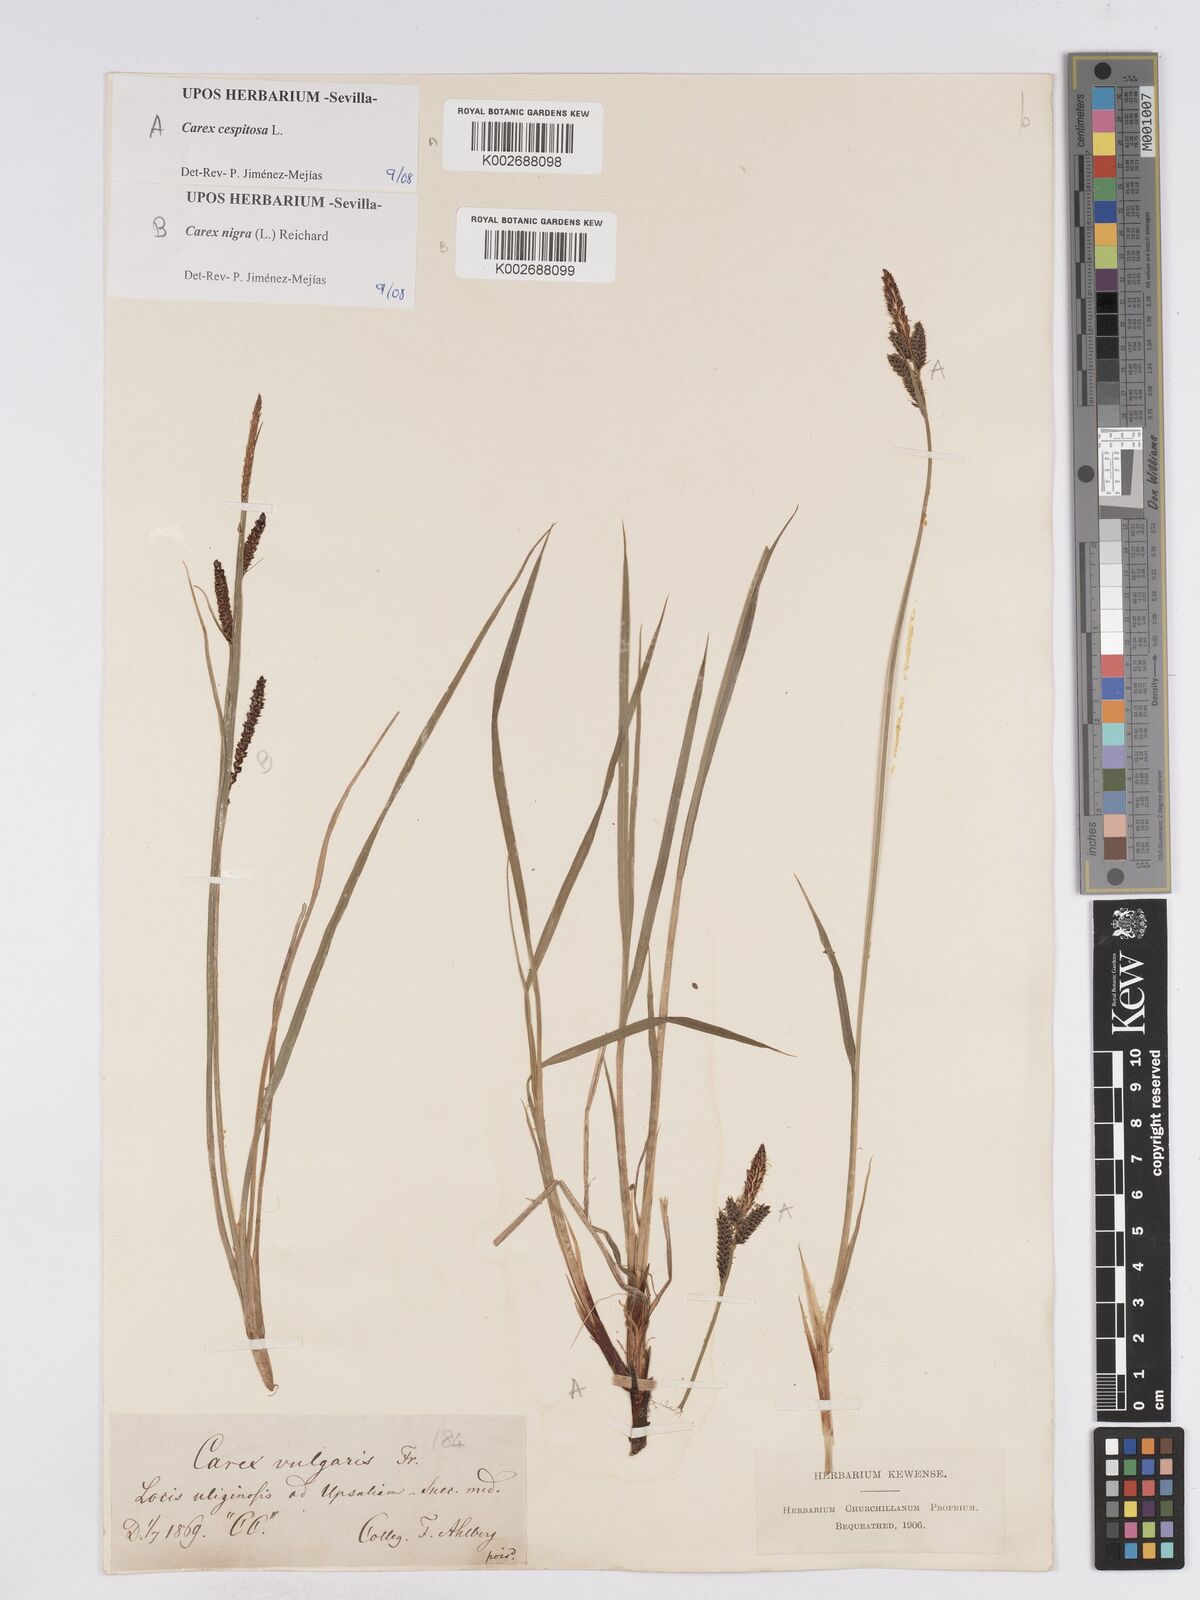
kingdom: Plantae
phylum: Tracheophyta
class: Liliopsida
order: Poales
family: Cyperaceae
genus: Carex
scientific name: Carex
